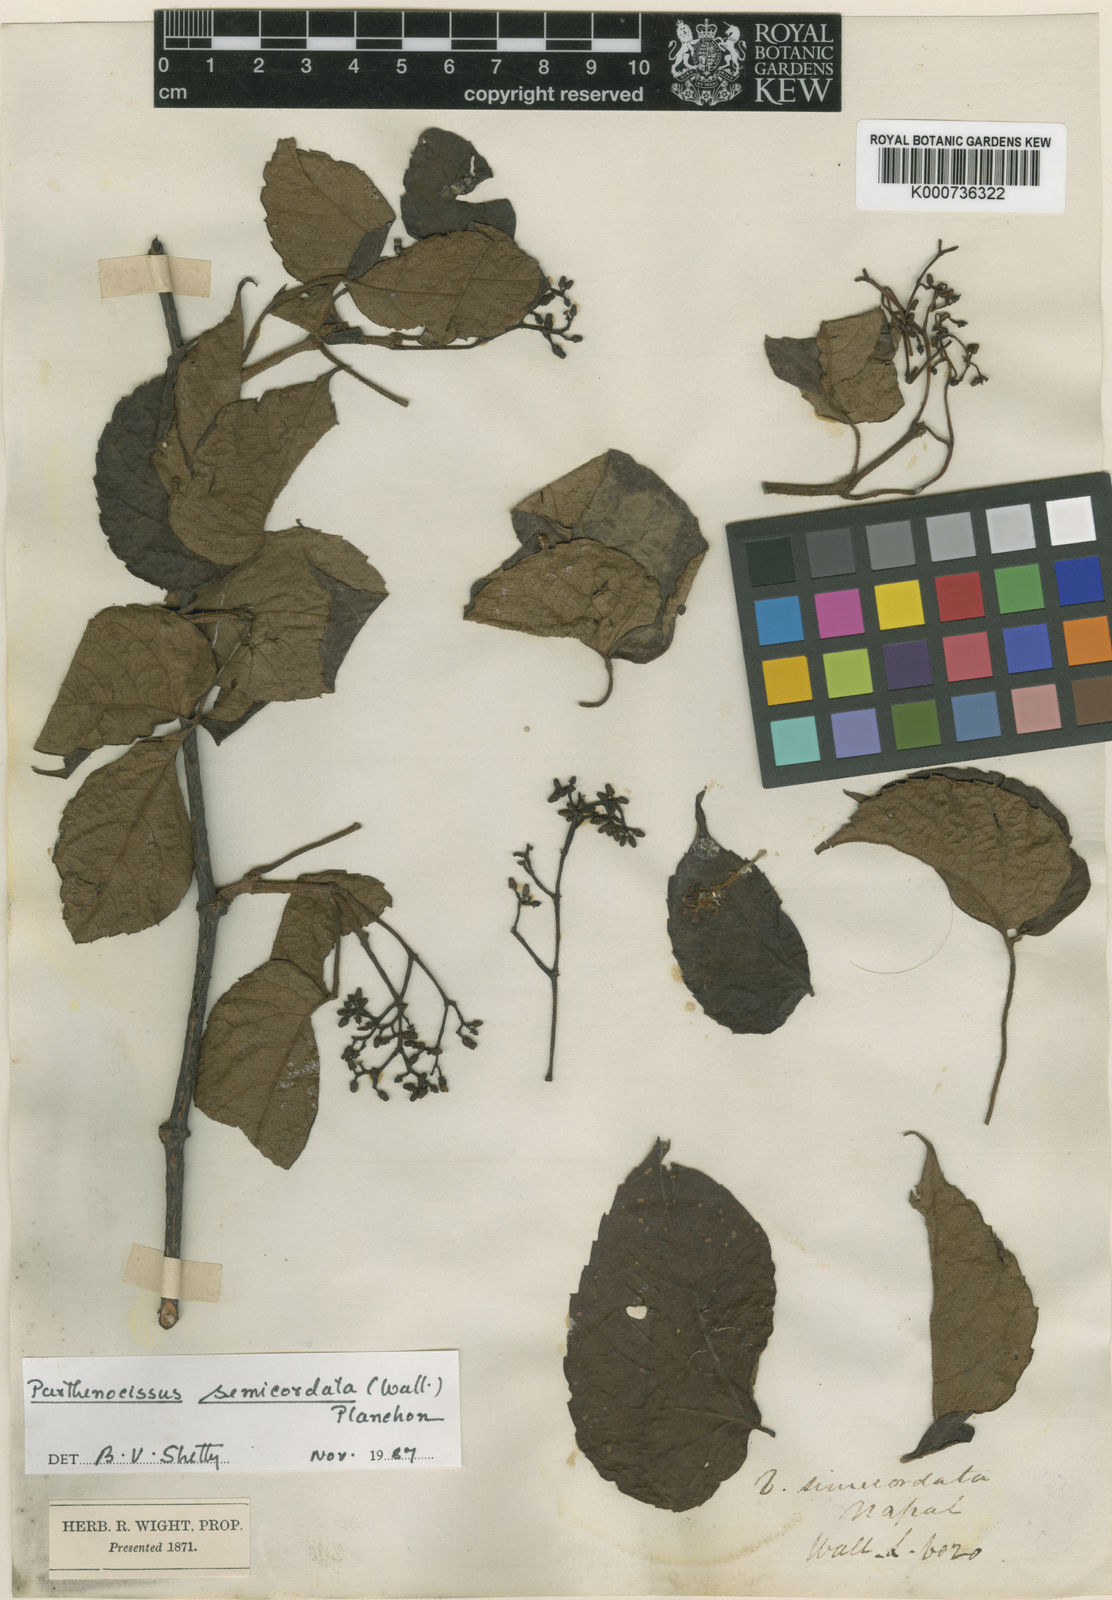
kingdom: Plantae
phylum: Tracheophyta
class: Magnoliopsida
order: Vitales
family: Vitaceae
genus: Parthenocissus
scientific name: Parthenocissus semicordata
